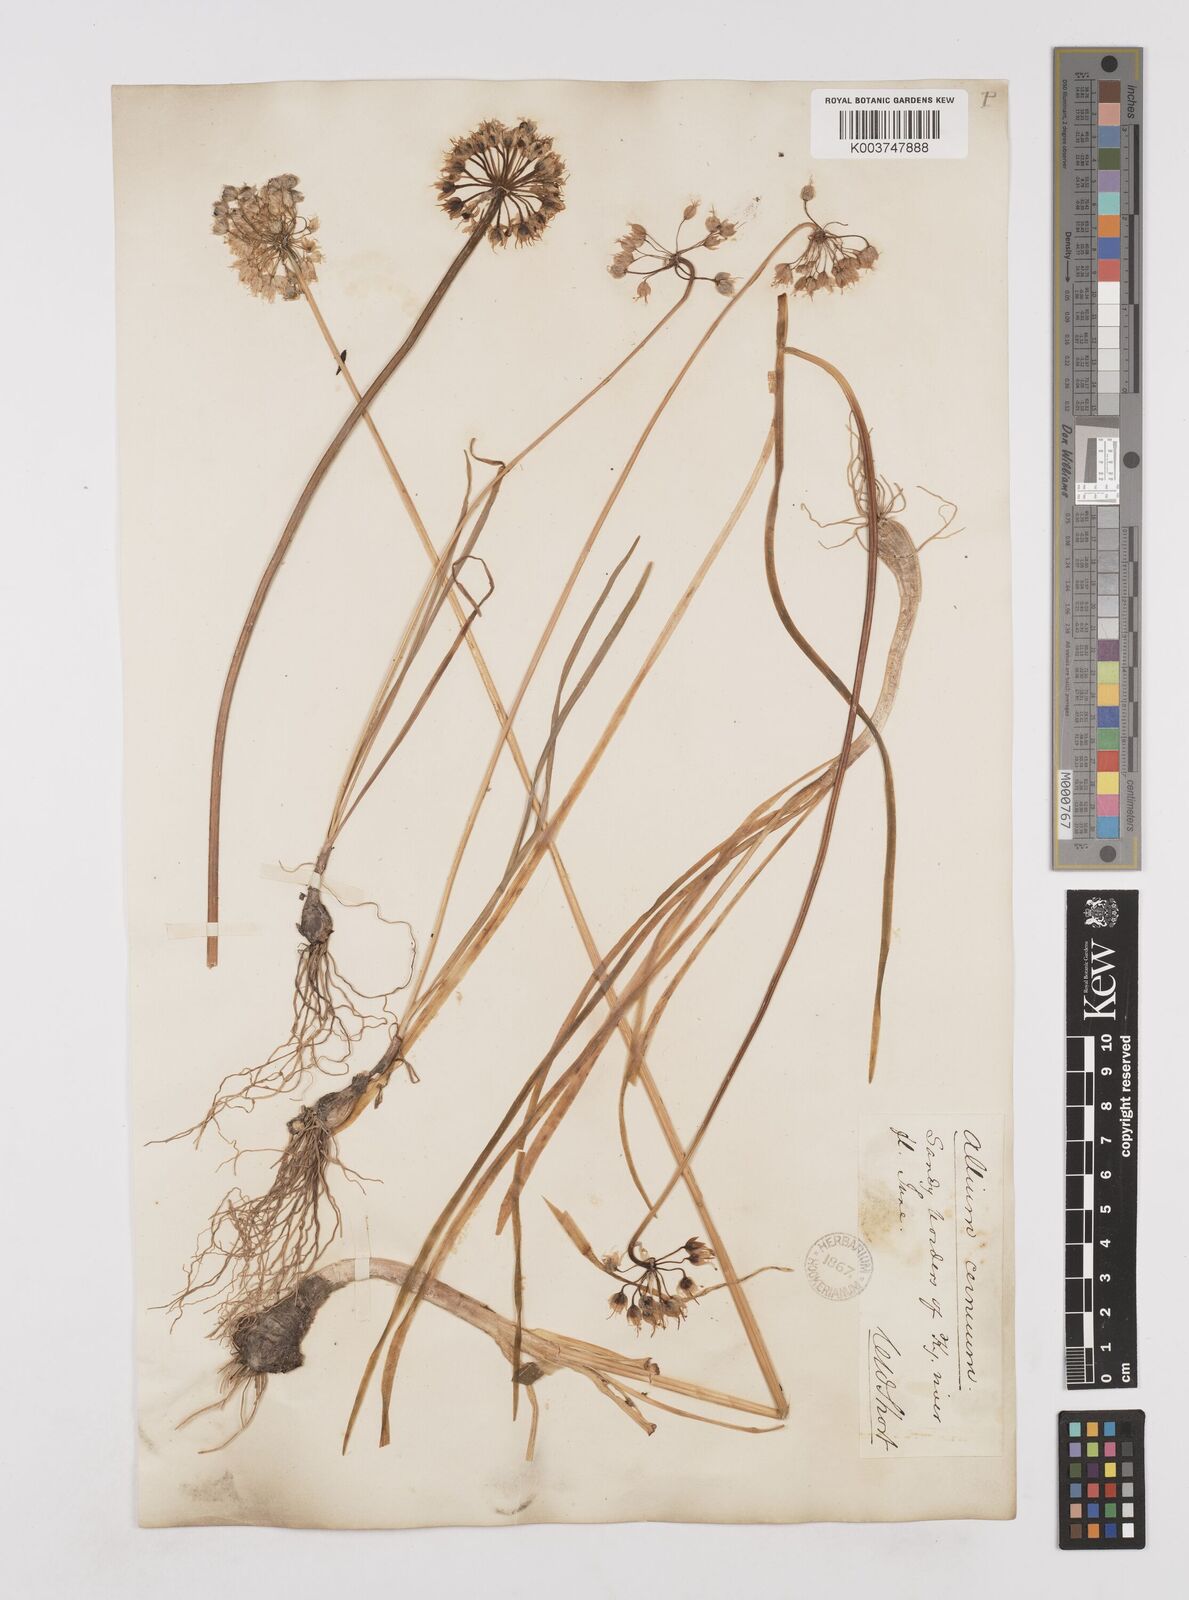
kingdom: Plantae
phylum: Tracheophyta
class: Liliopsida
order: Asparagales
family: Amaryllidaceae
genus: Allium
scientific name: Allium cernuum
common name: Nodding onion
